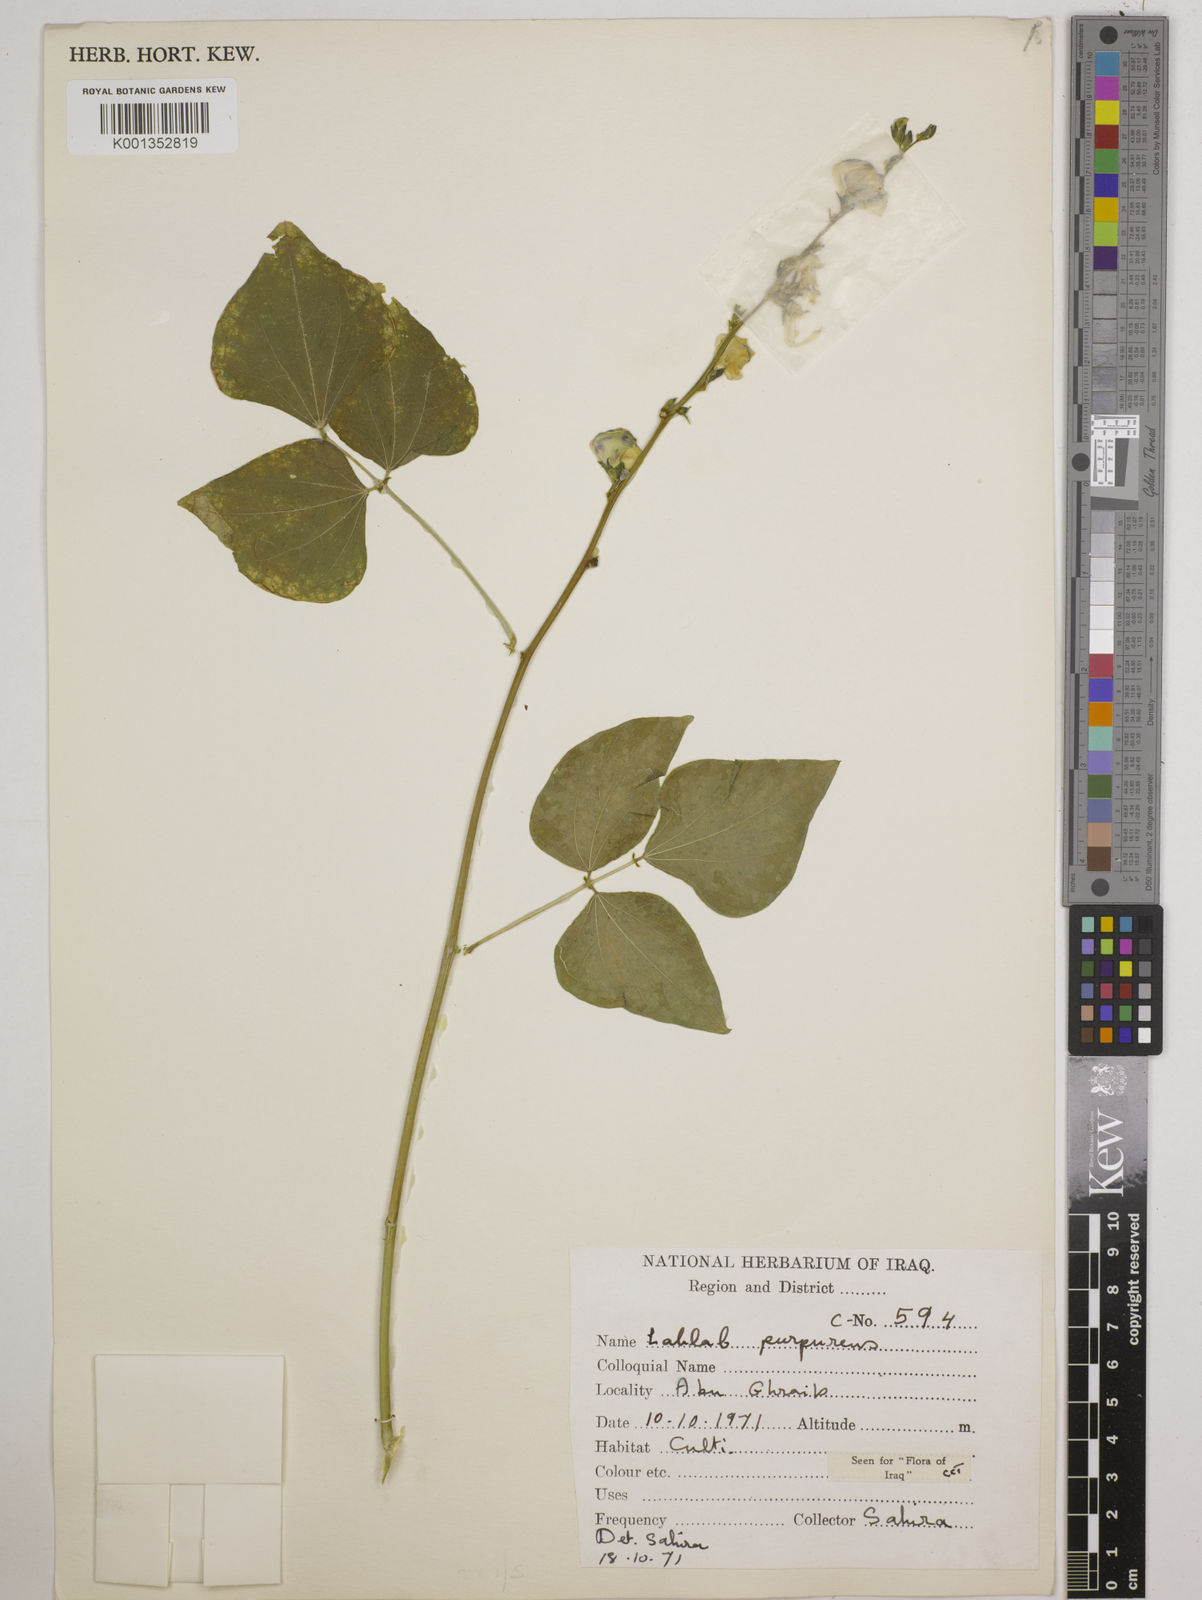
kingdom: Plantae
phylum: Tracheophyta
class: Magnoliopsida
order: Fabales
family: Fabaceae
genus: Lablab
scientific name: Lablab purpureus
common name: Lablab-bean
